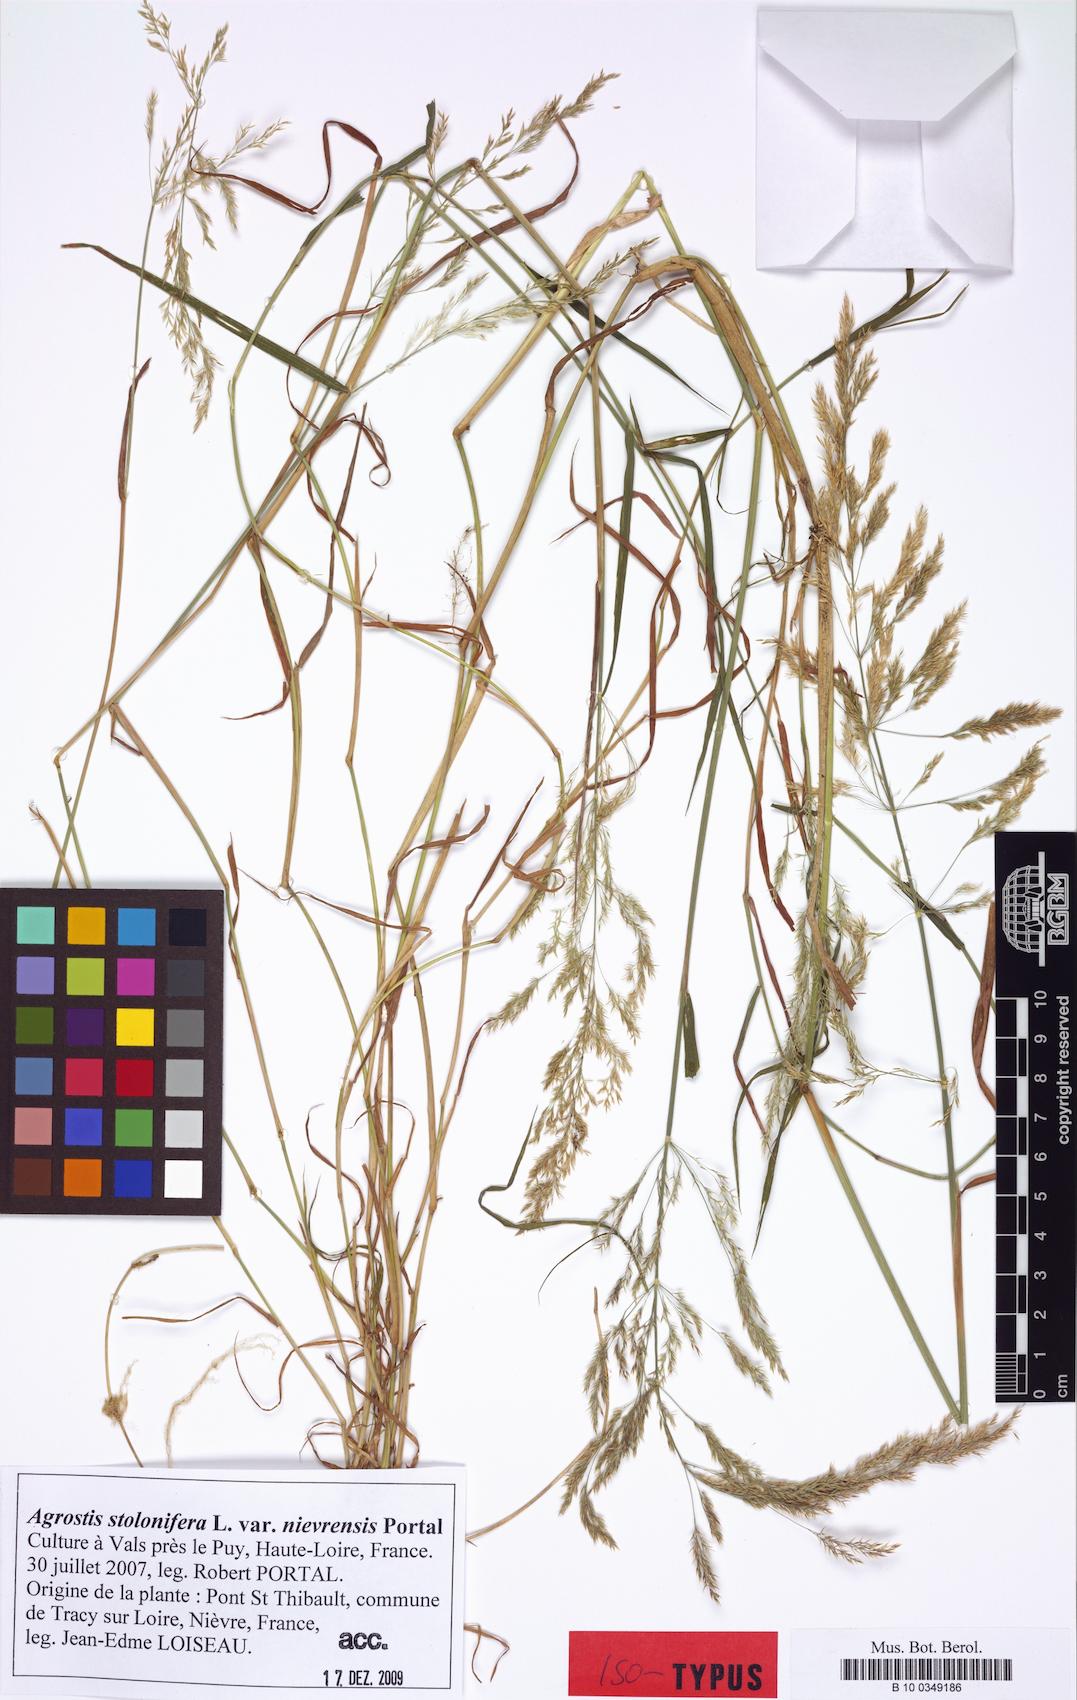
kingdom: Plantae
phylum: Tracheophyta
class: Liliopsida
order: Poales
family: Poaceae
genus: Agrostis
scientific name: Agrostis stolonifera
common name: Creeping bentgrass
